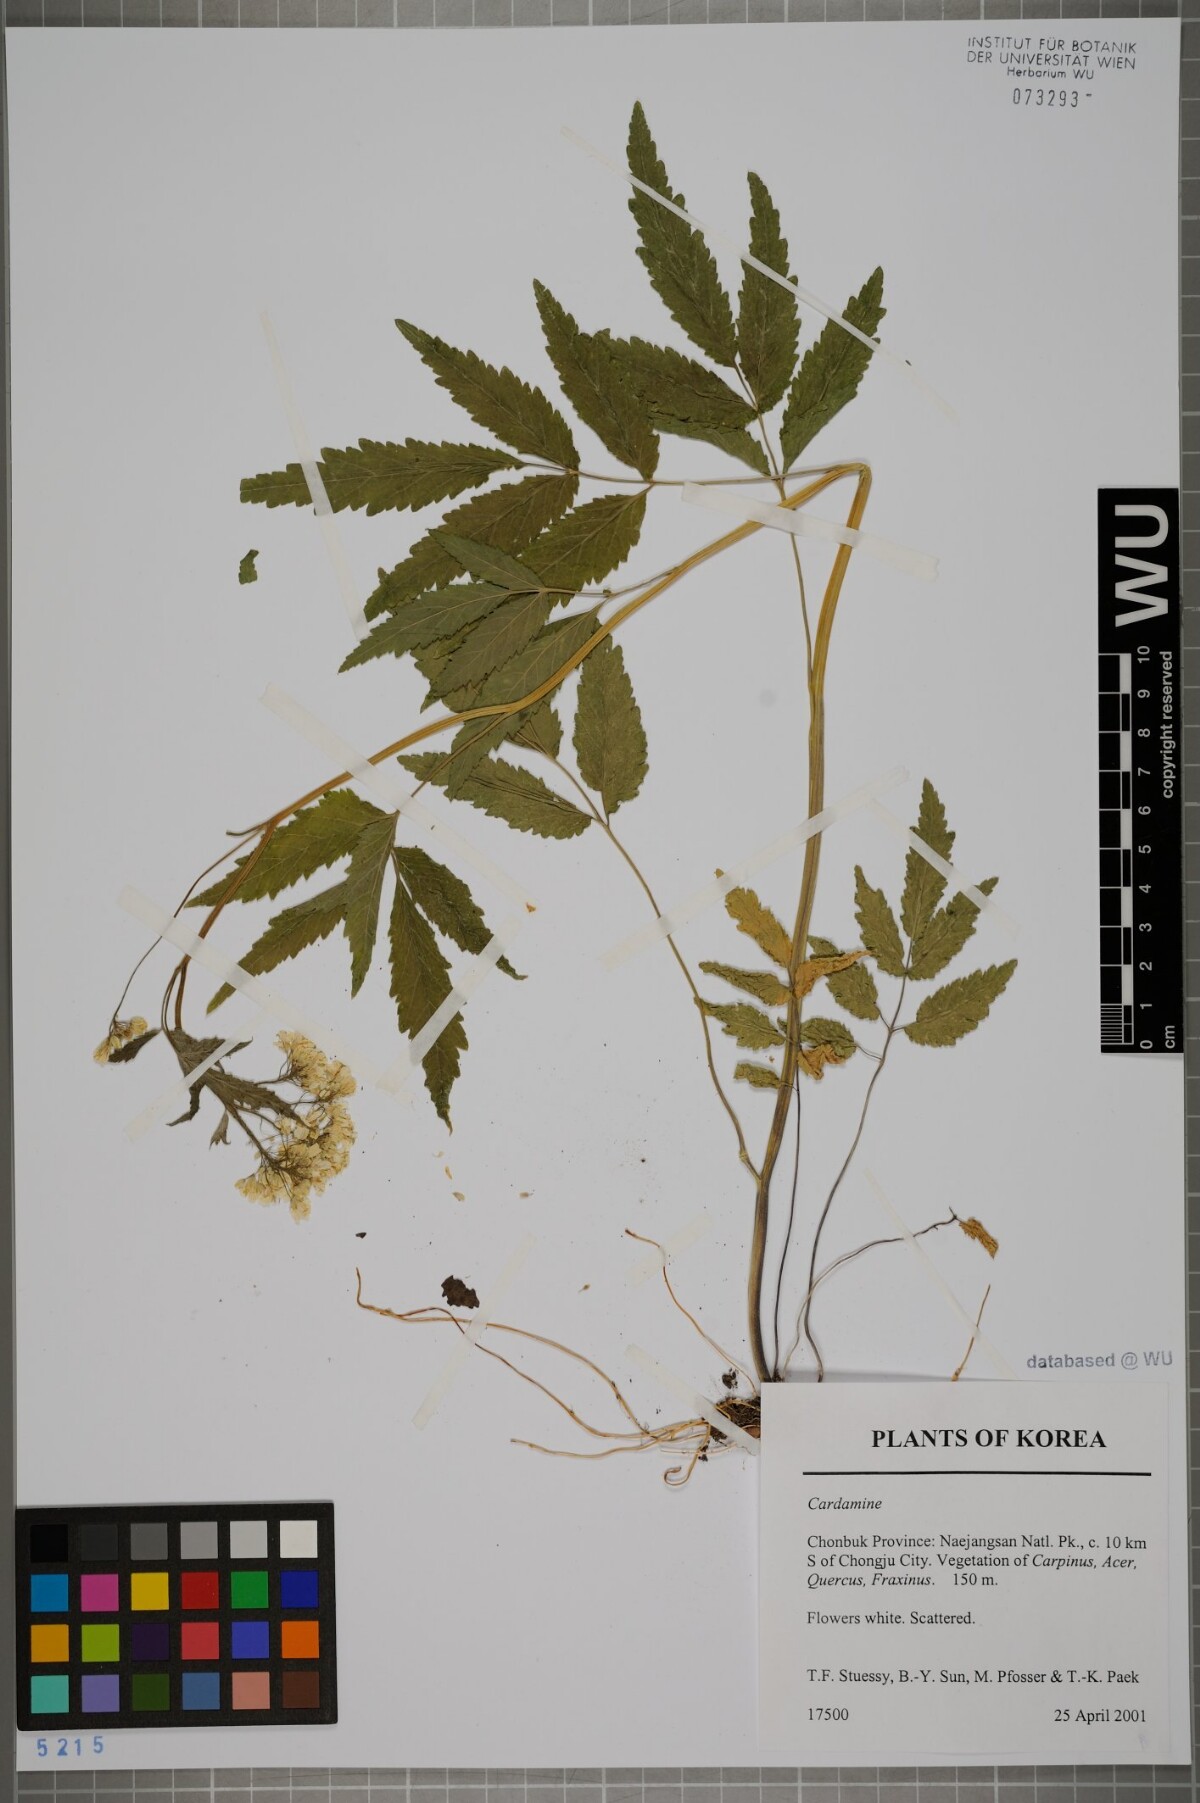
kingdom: Plantae
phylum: Tracheophyta
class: Magnoliopsida
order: Brassicales
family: Brassicaceae
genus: Cardamine
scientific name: Cardamine
